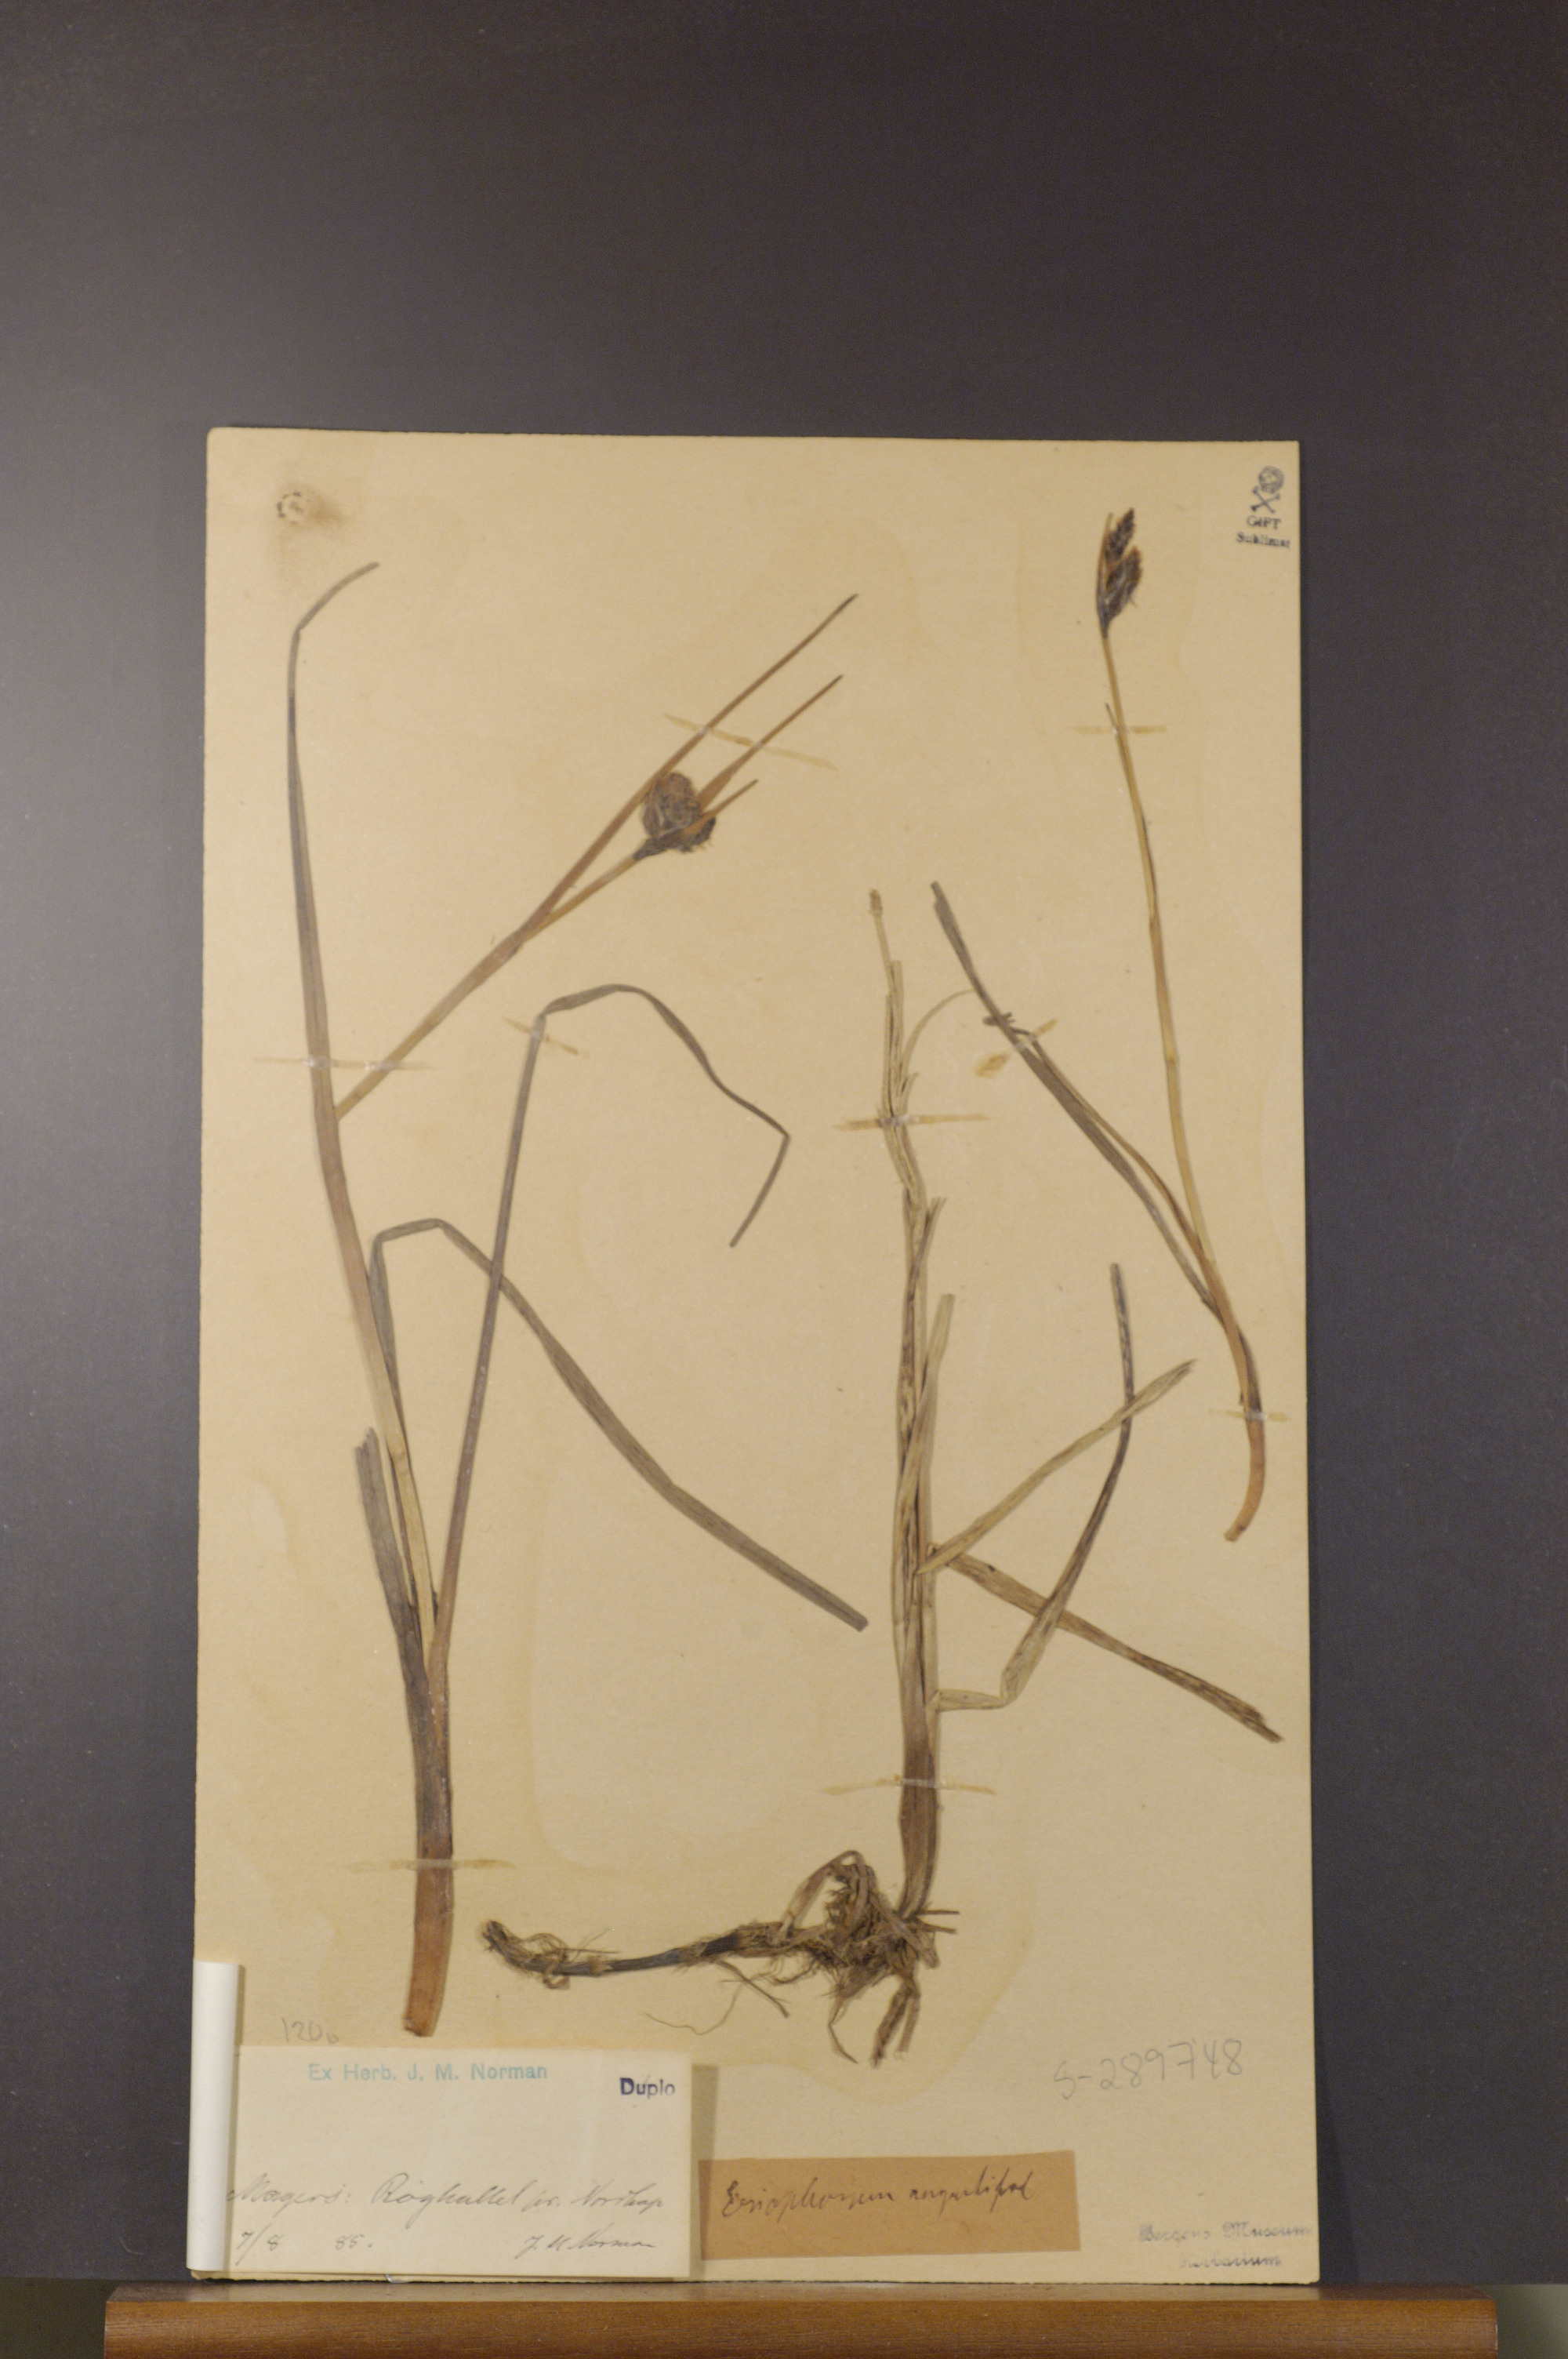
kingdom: Plantae
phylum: Tracheophyta
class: Liliopsida
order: Poales
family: Cyperaceae
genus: Eriophorum
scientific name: Eriophorum angustifolium
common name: Common cottongrass
